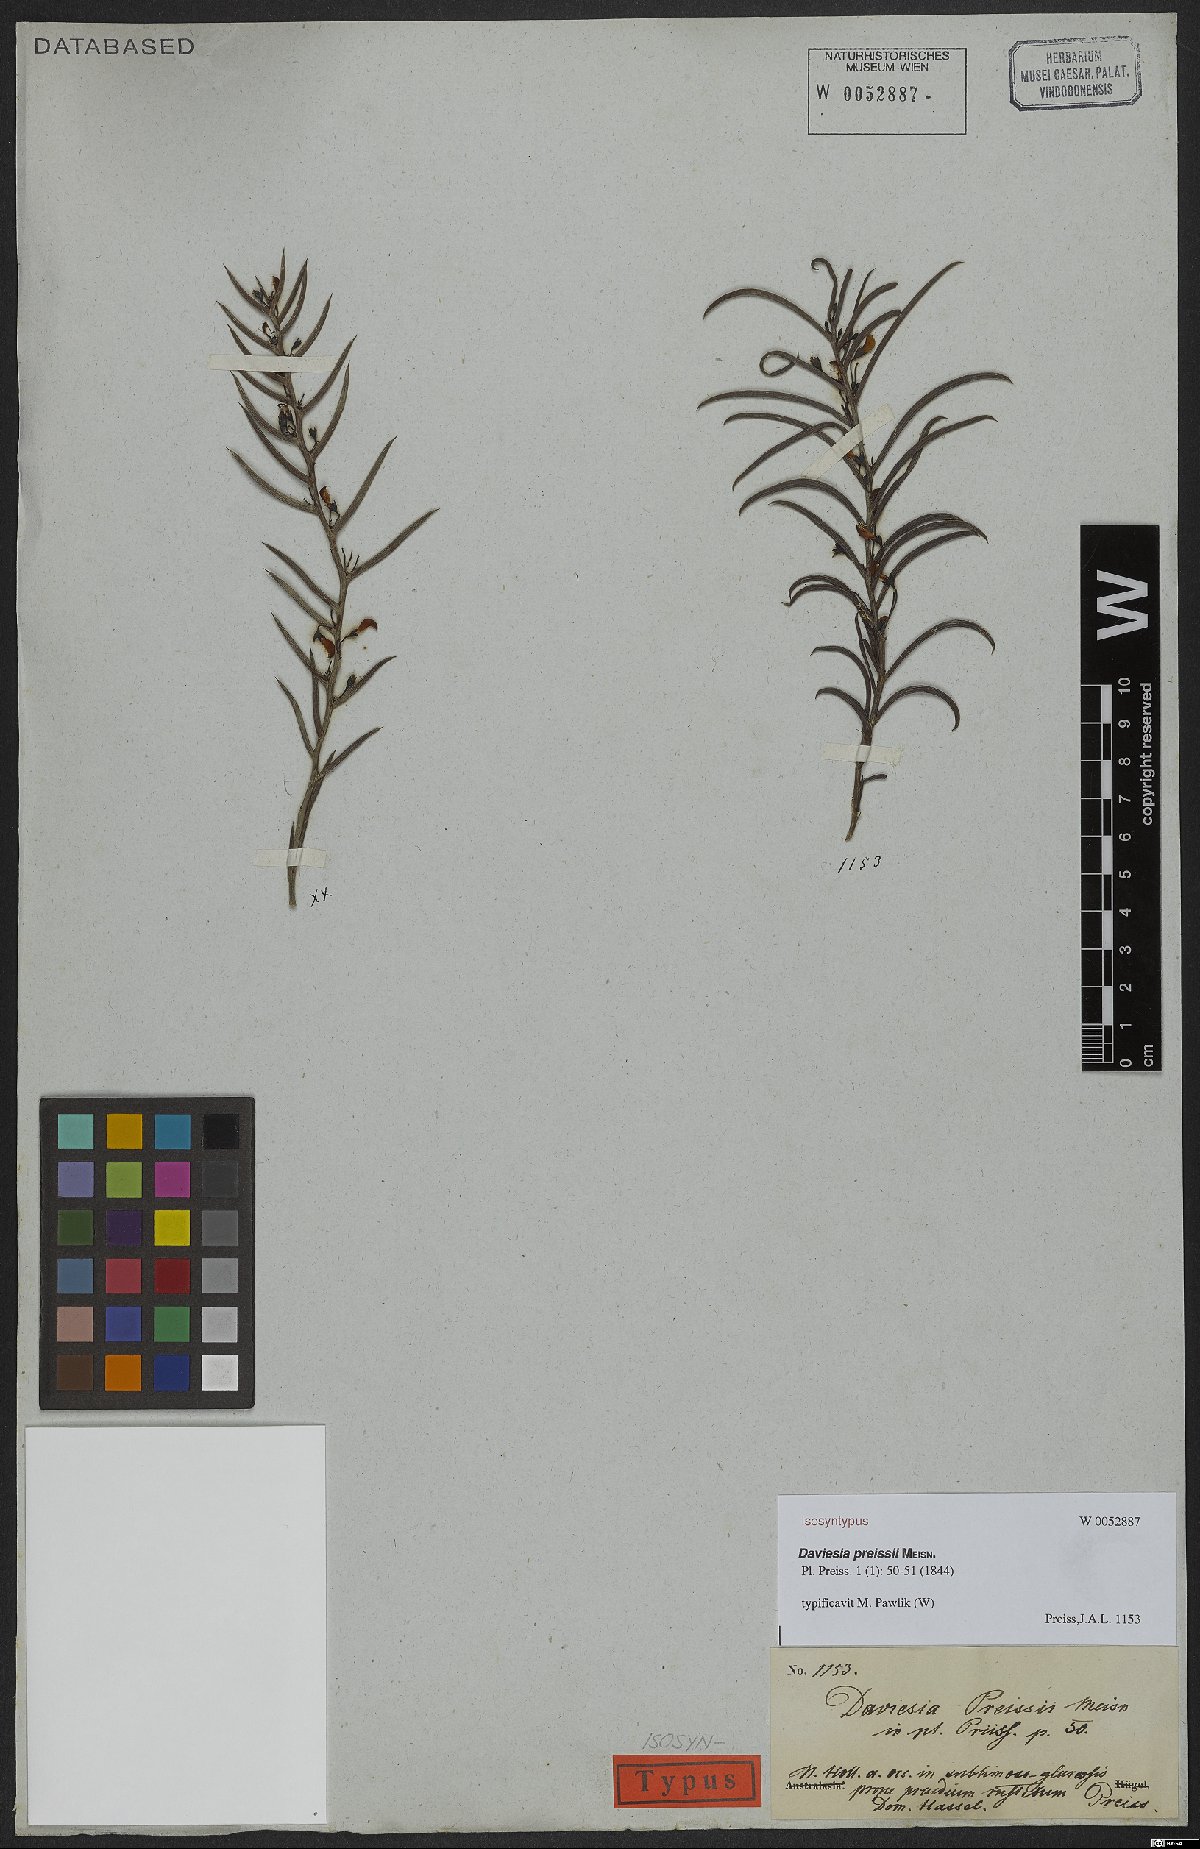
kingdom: Plantae
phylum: Tracheophyta
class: Magnoliopsida
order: Fabales
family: Fabaceae
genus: Daviesia
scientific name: Daviesia preissii
